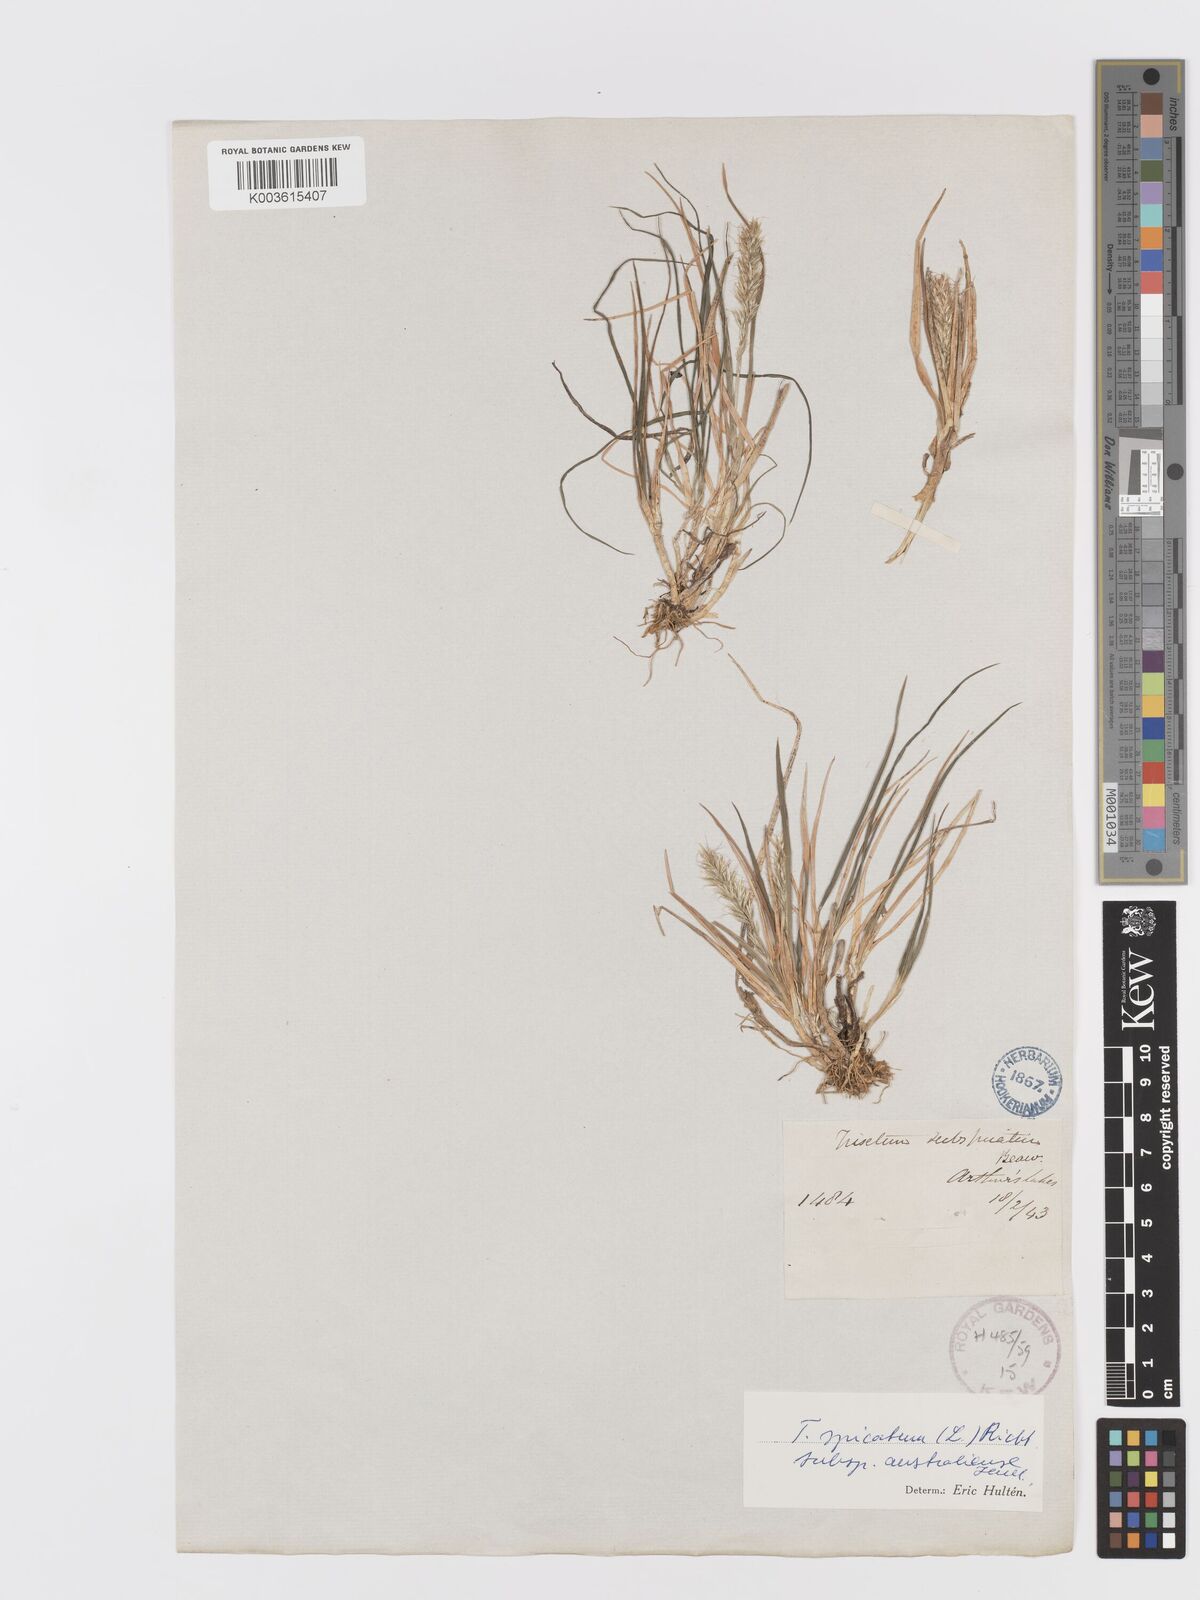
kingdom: Plantae
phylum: Tracheophyta
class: Liliopsida
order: Poales
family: Poaceae
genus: Koeleria
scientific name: Koeleria spicata
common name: Mountain trisetum
